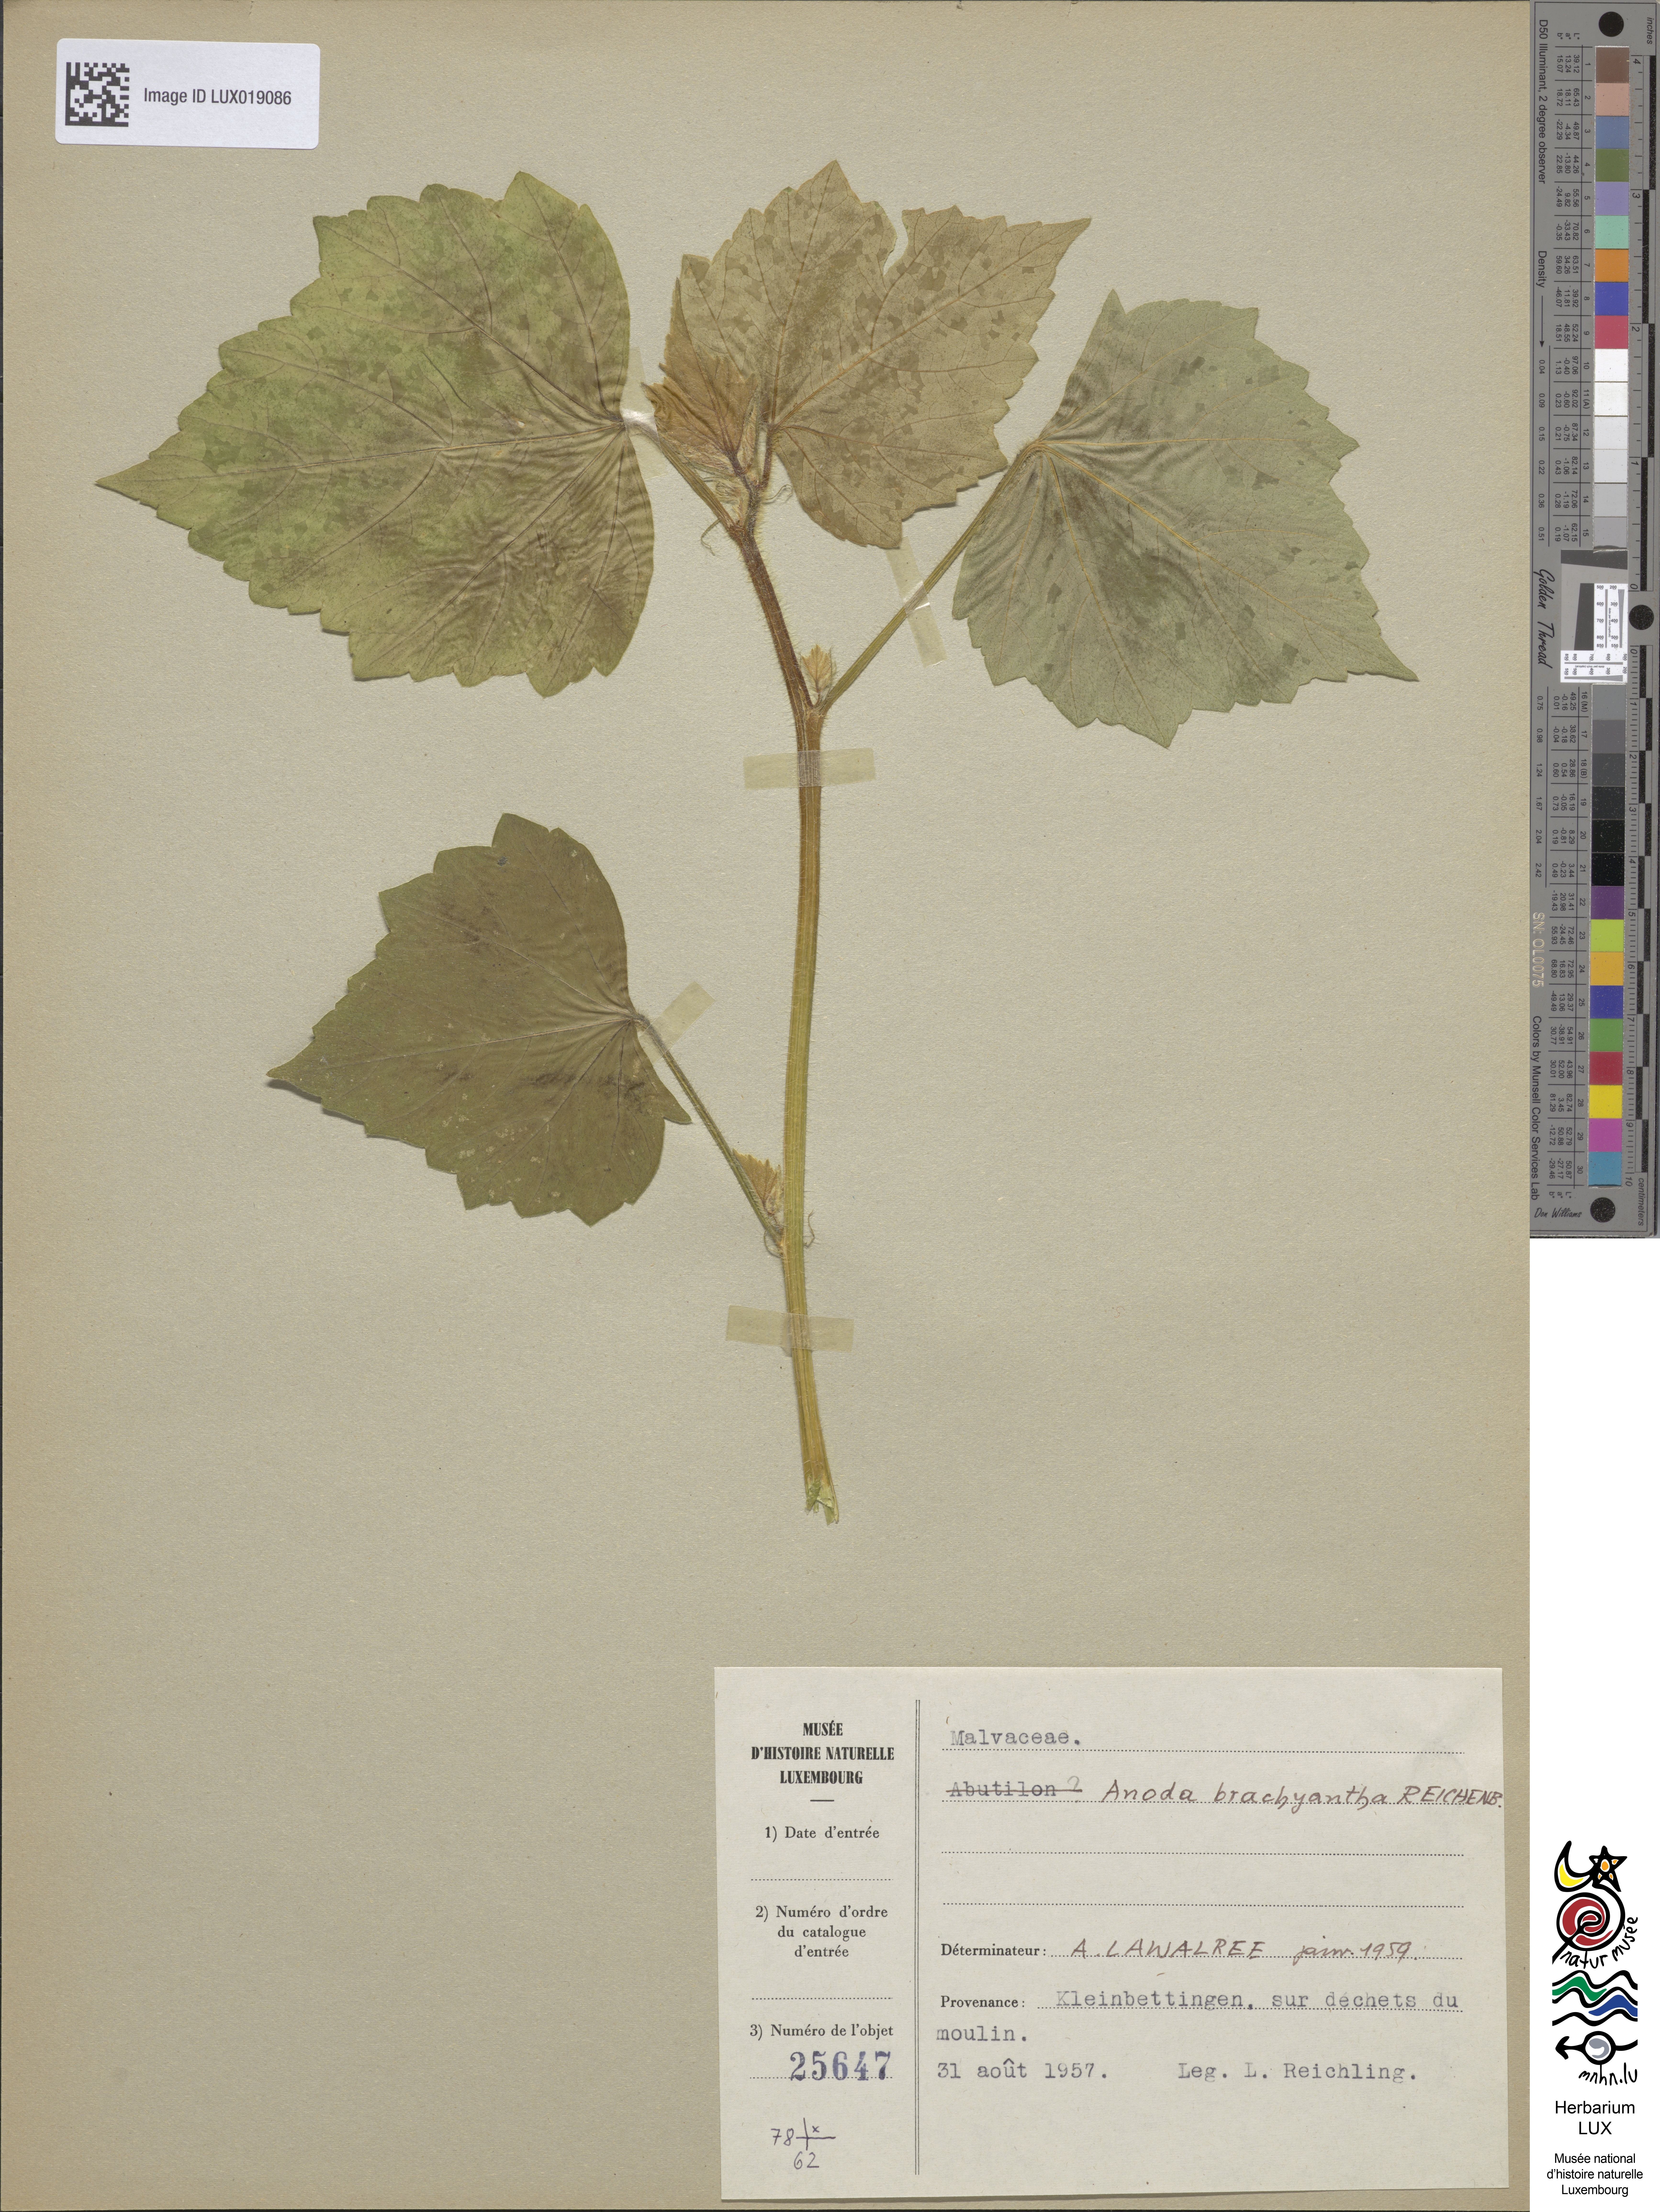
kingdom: Plantae
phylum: Tracheophyta
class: Magnoliopsida
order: Malvales
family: Malvaceae
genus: Anoda
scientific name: Anoda cristata
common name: Spurred anoda
